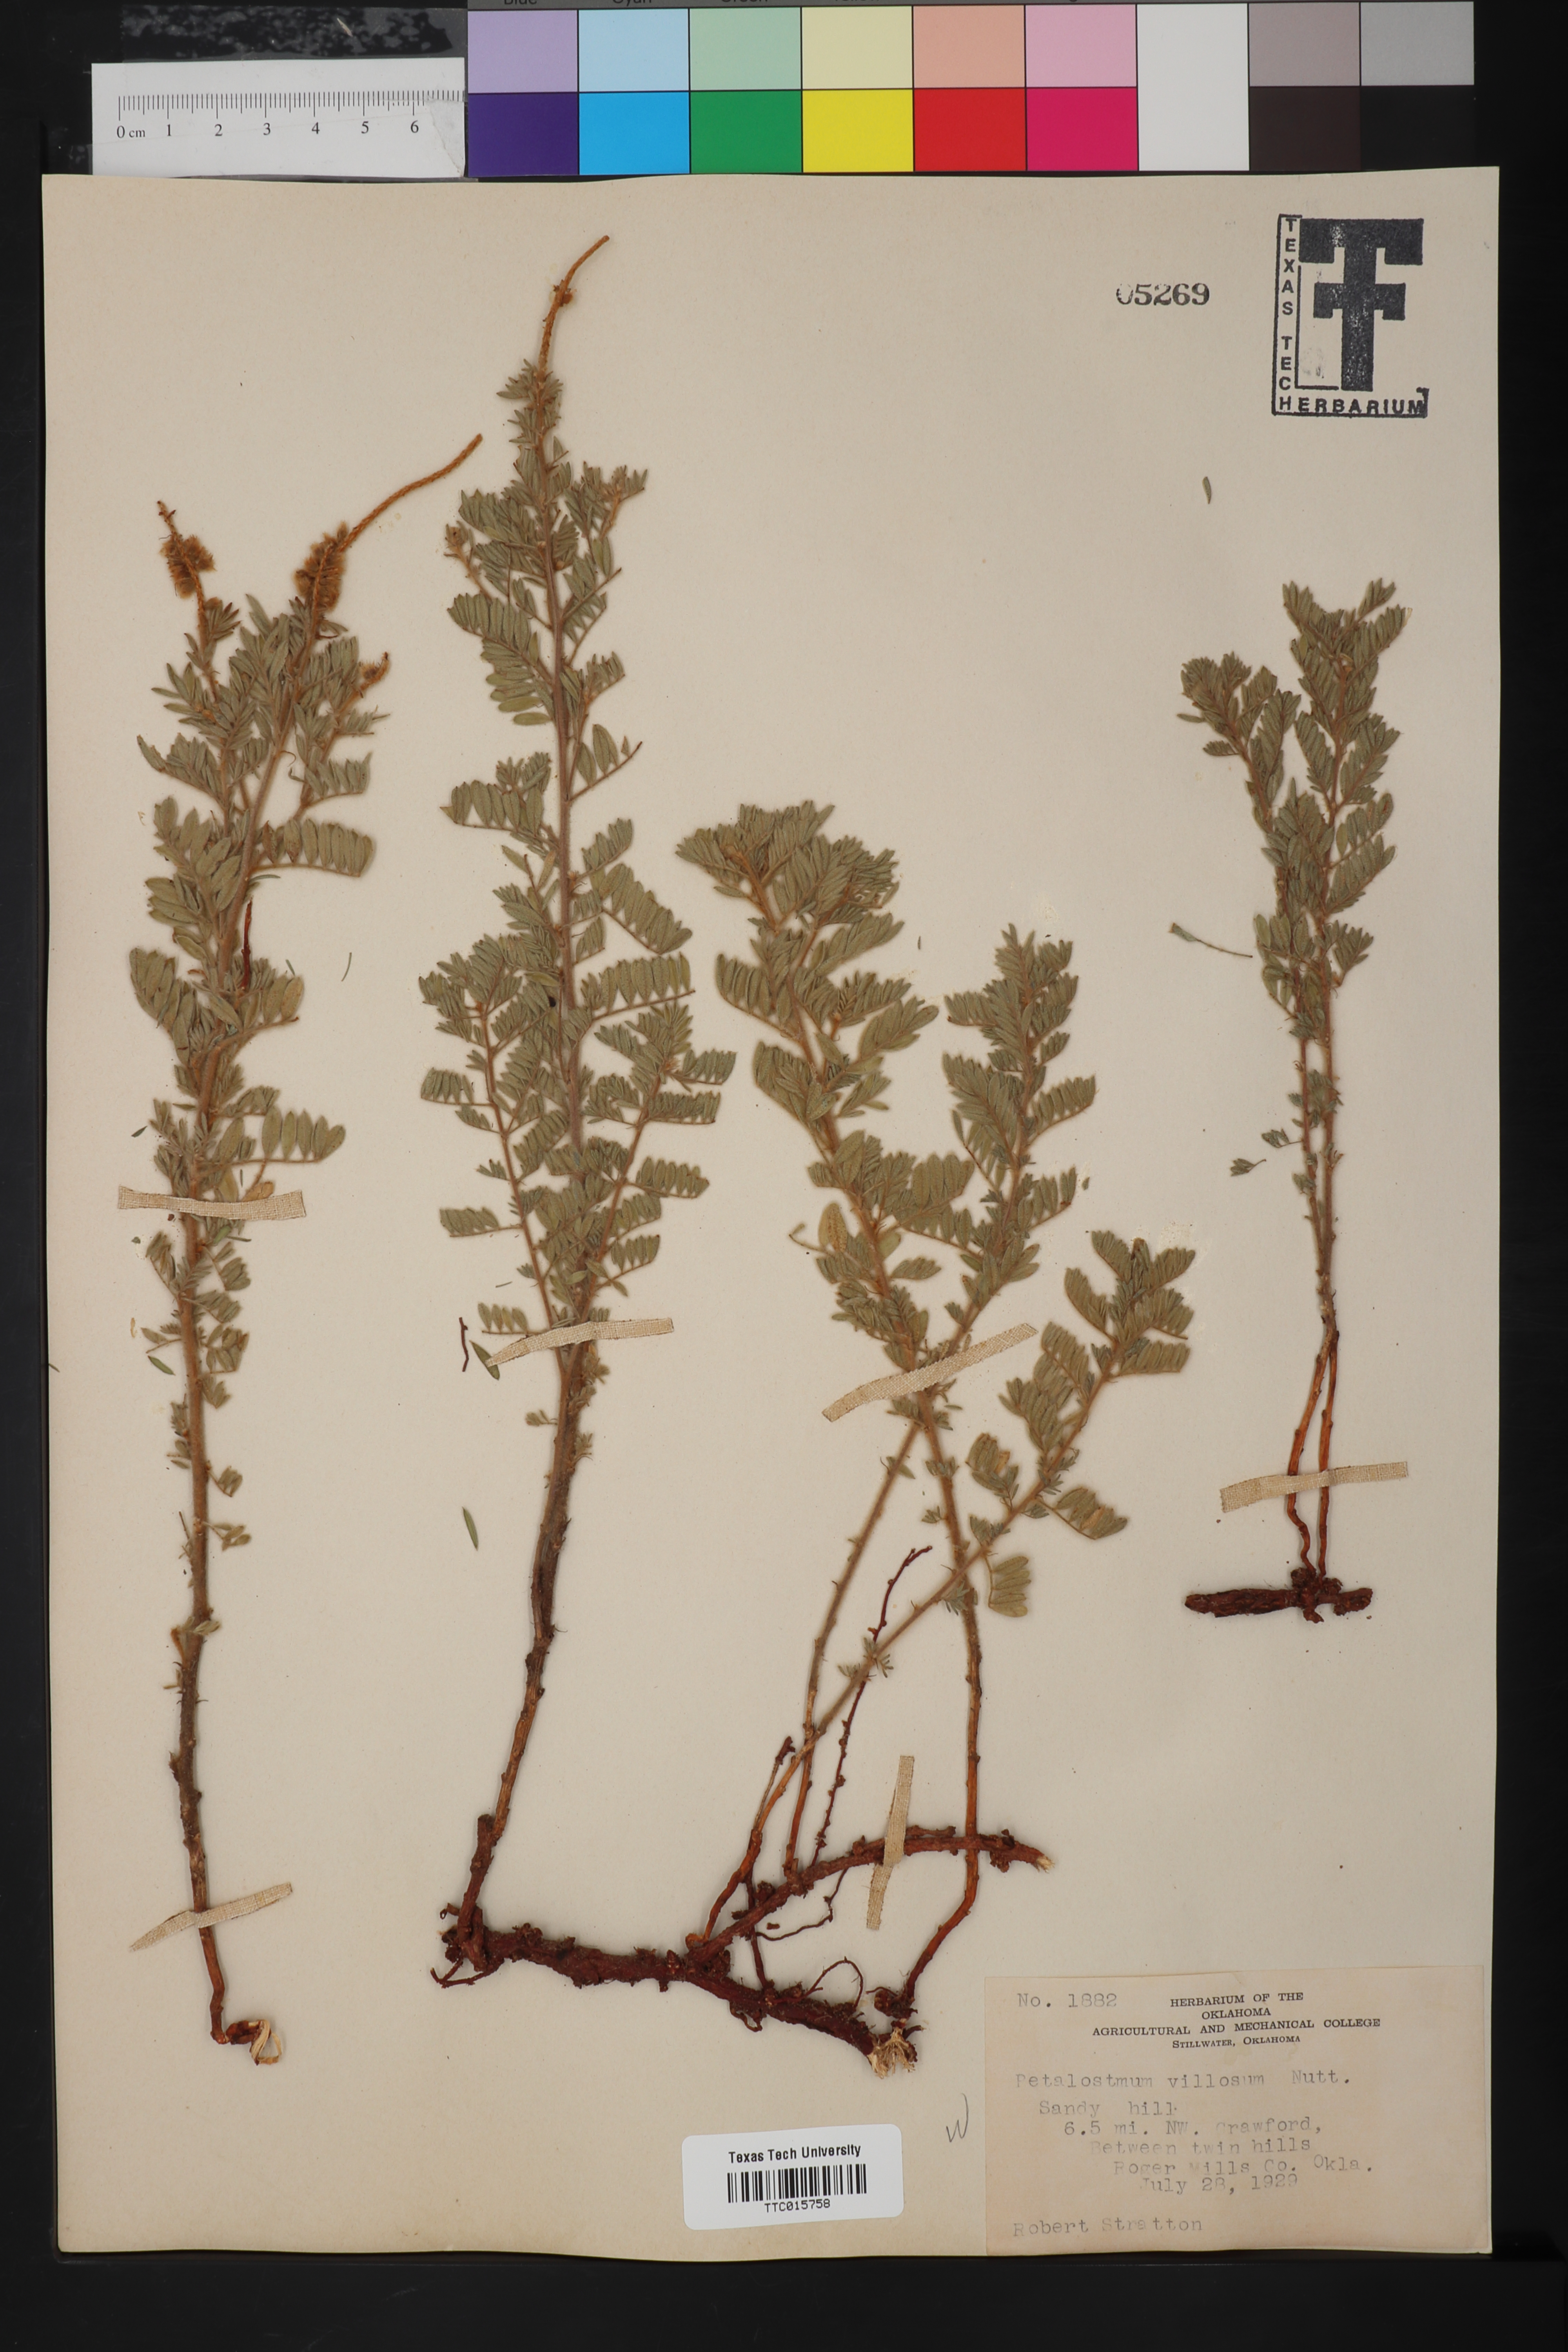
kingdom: Plantae
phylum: Tracheophyta
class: Magnoliopsida
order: Fabales
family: Fabaceae
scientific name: Fabaceae
